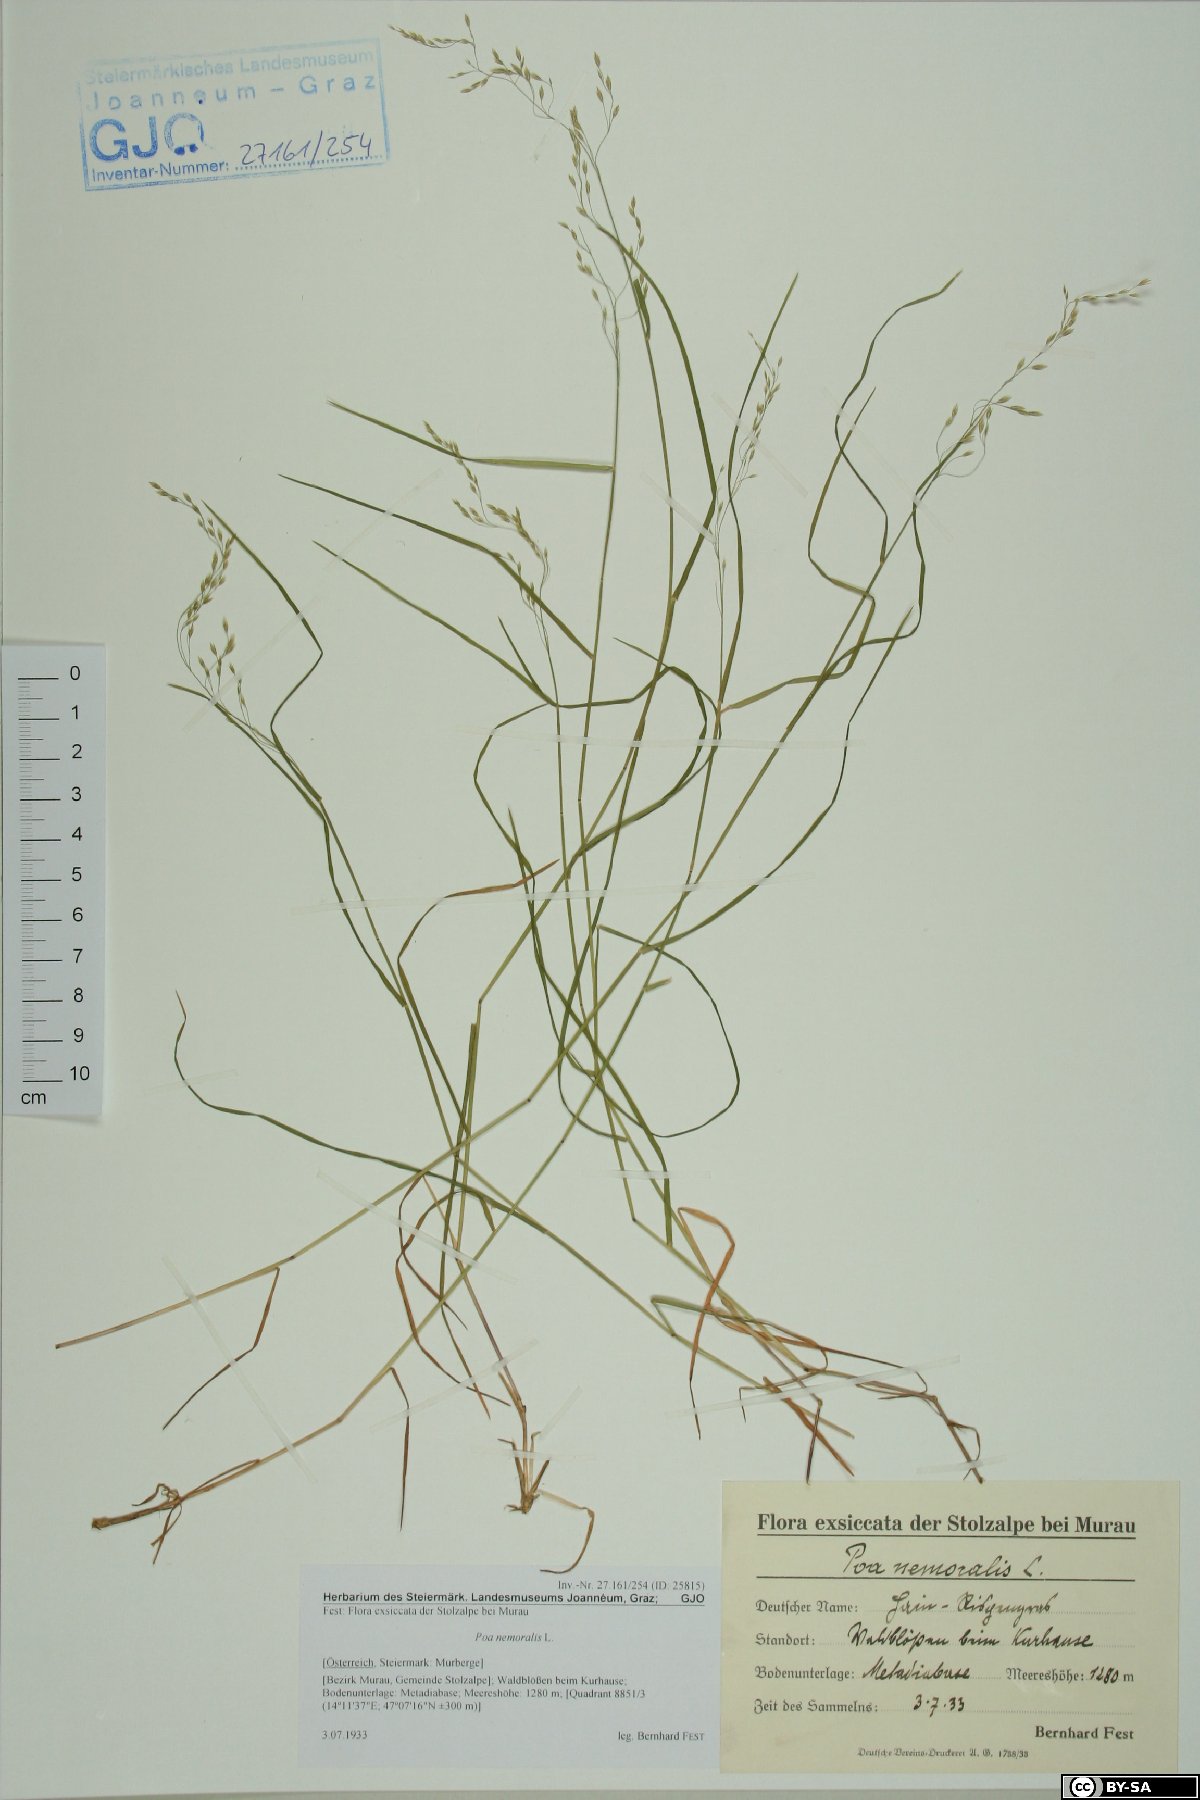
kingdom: Plantae
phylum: Tracheophyta
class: Liliopsida
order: Poales
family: Poaceae
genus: Poa
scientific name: Poa nemoralis
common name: Wood bluegrass
